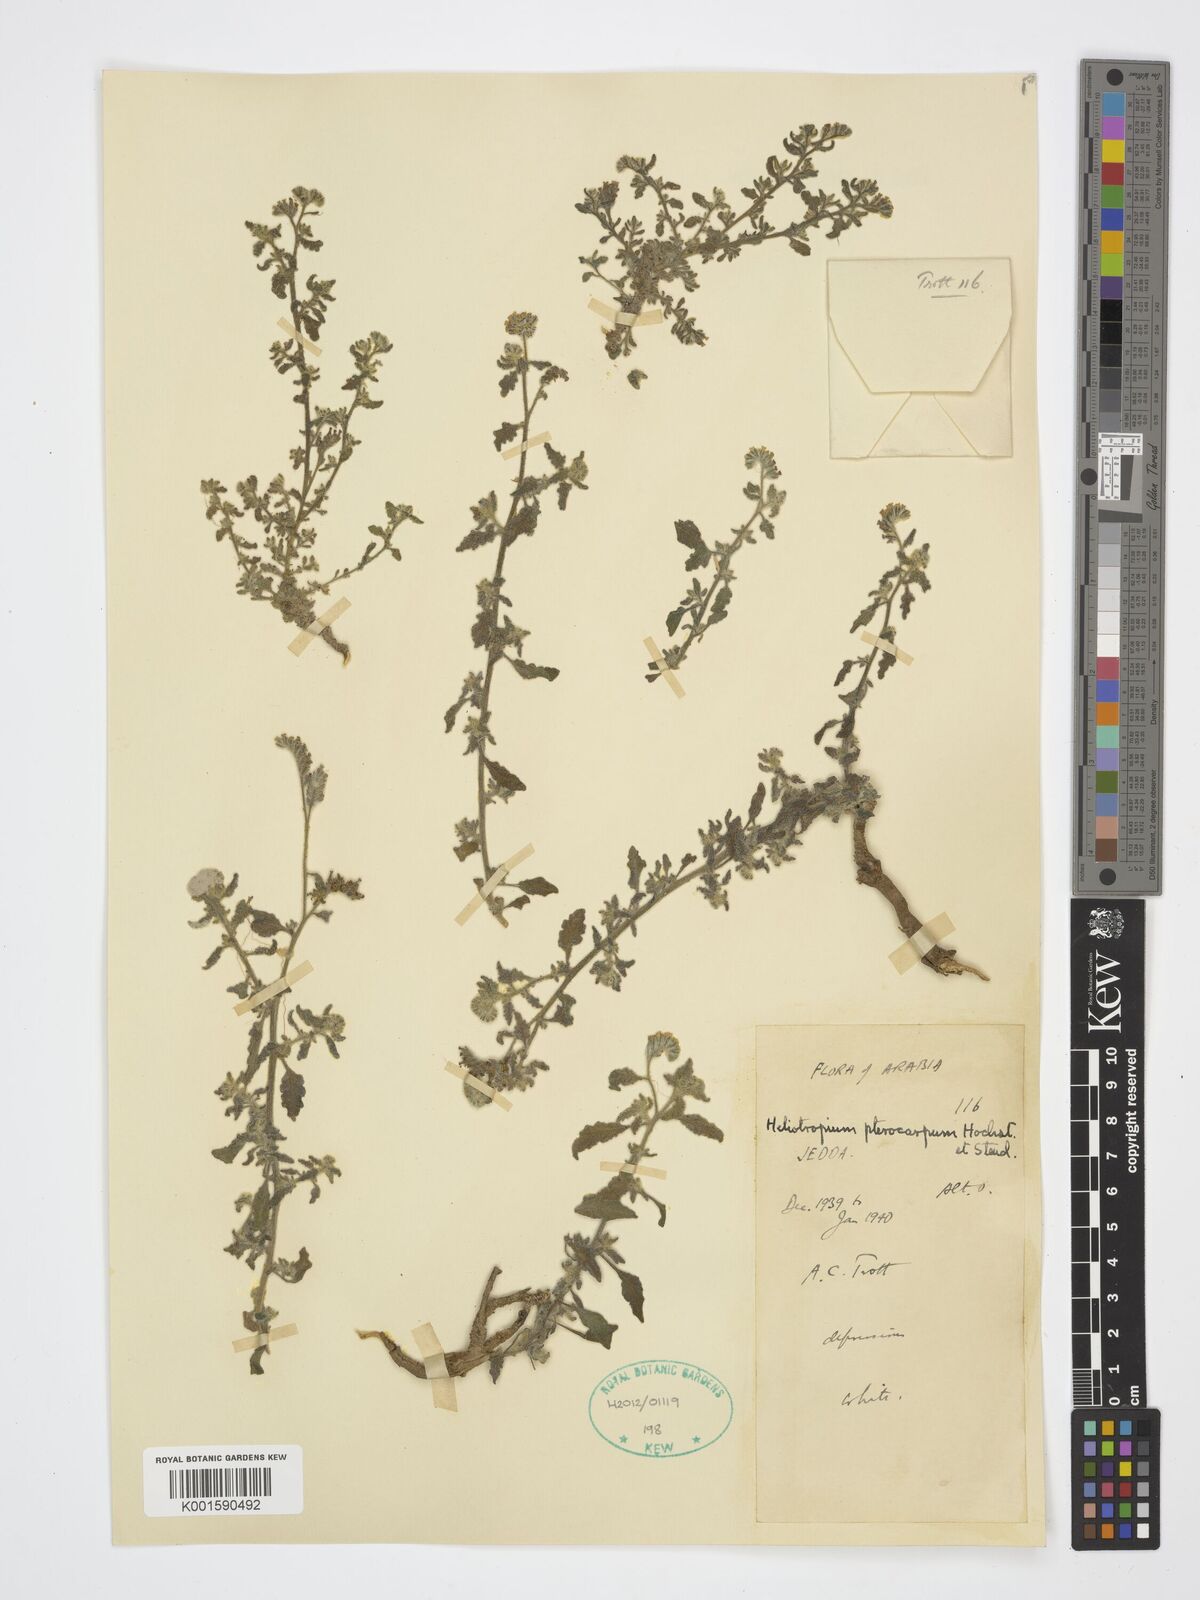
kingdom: Plantae
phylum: Tracheophyta
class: Magnoliopsida
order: Boraginales
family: Heliotropiaceae
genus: Heliotropium
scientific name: Heliotropium pterocarpum
